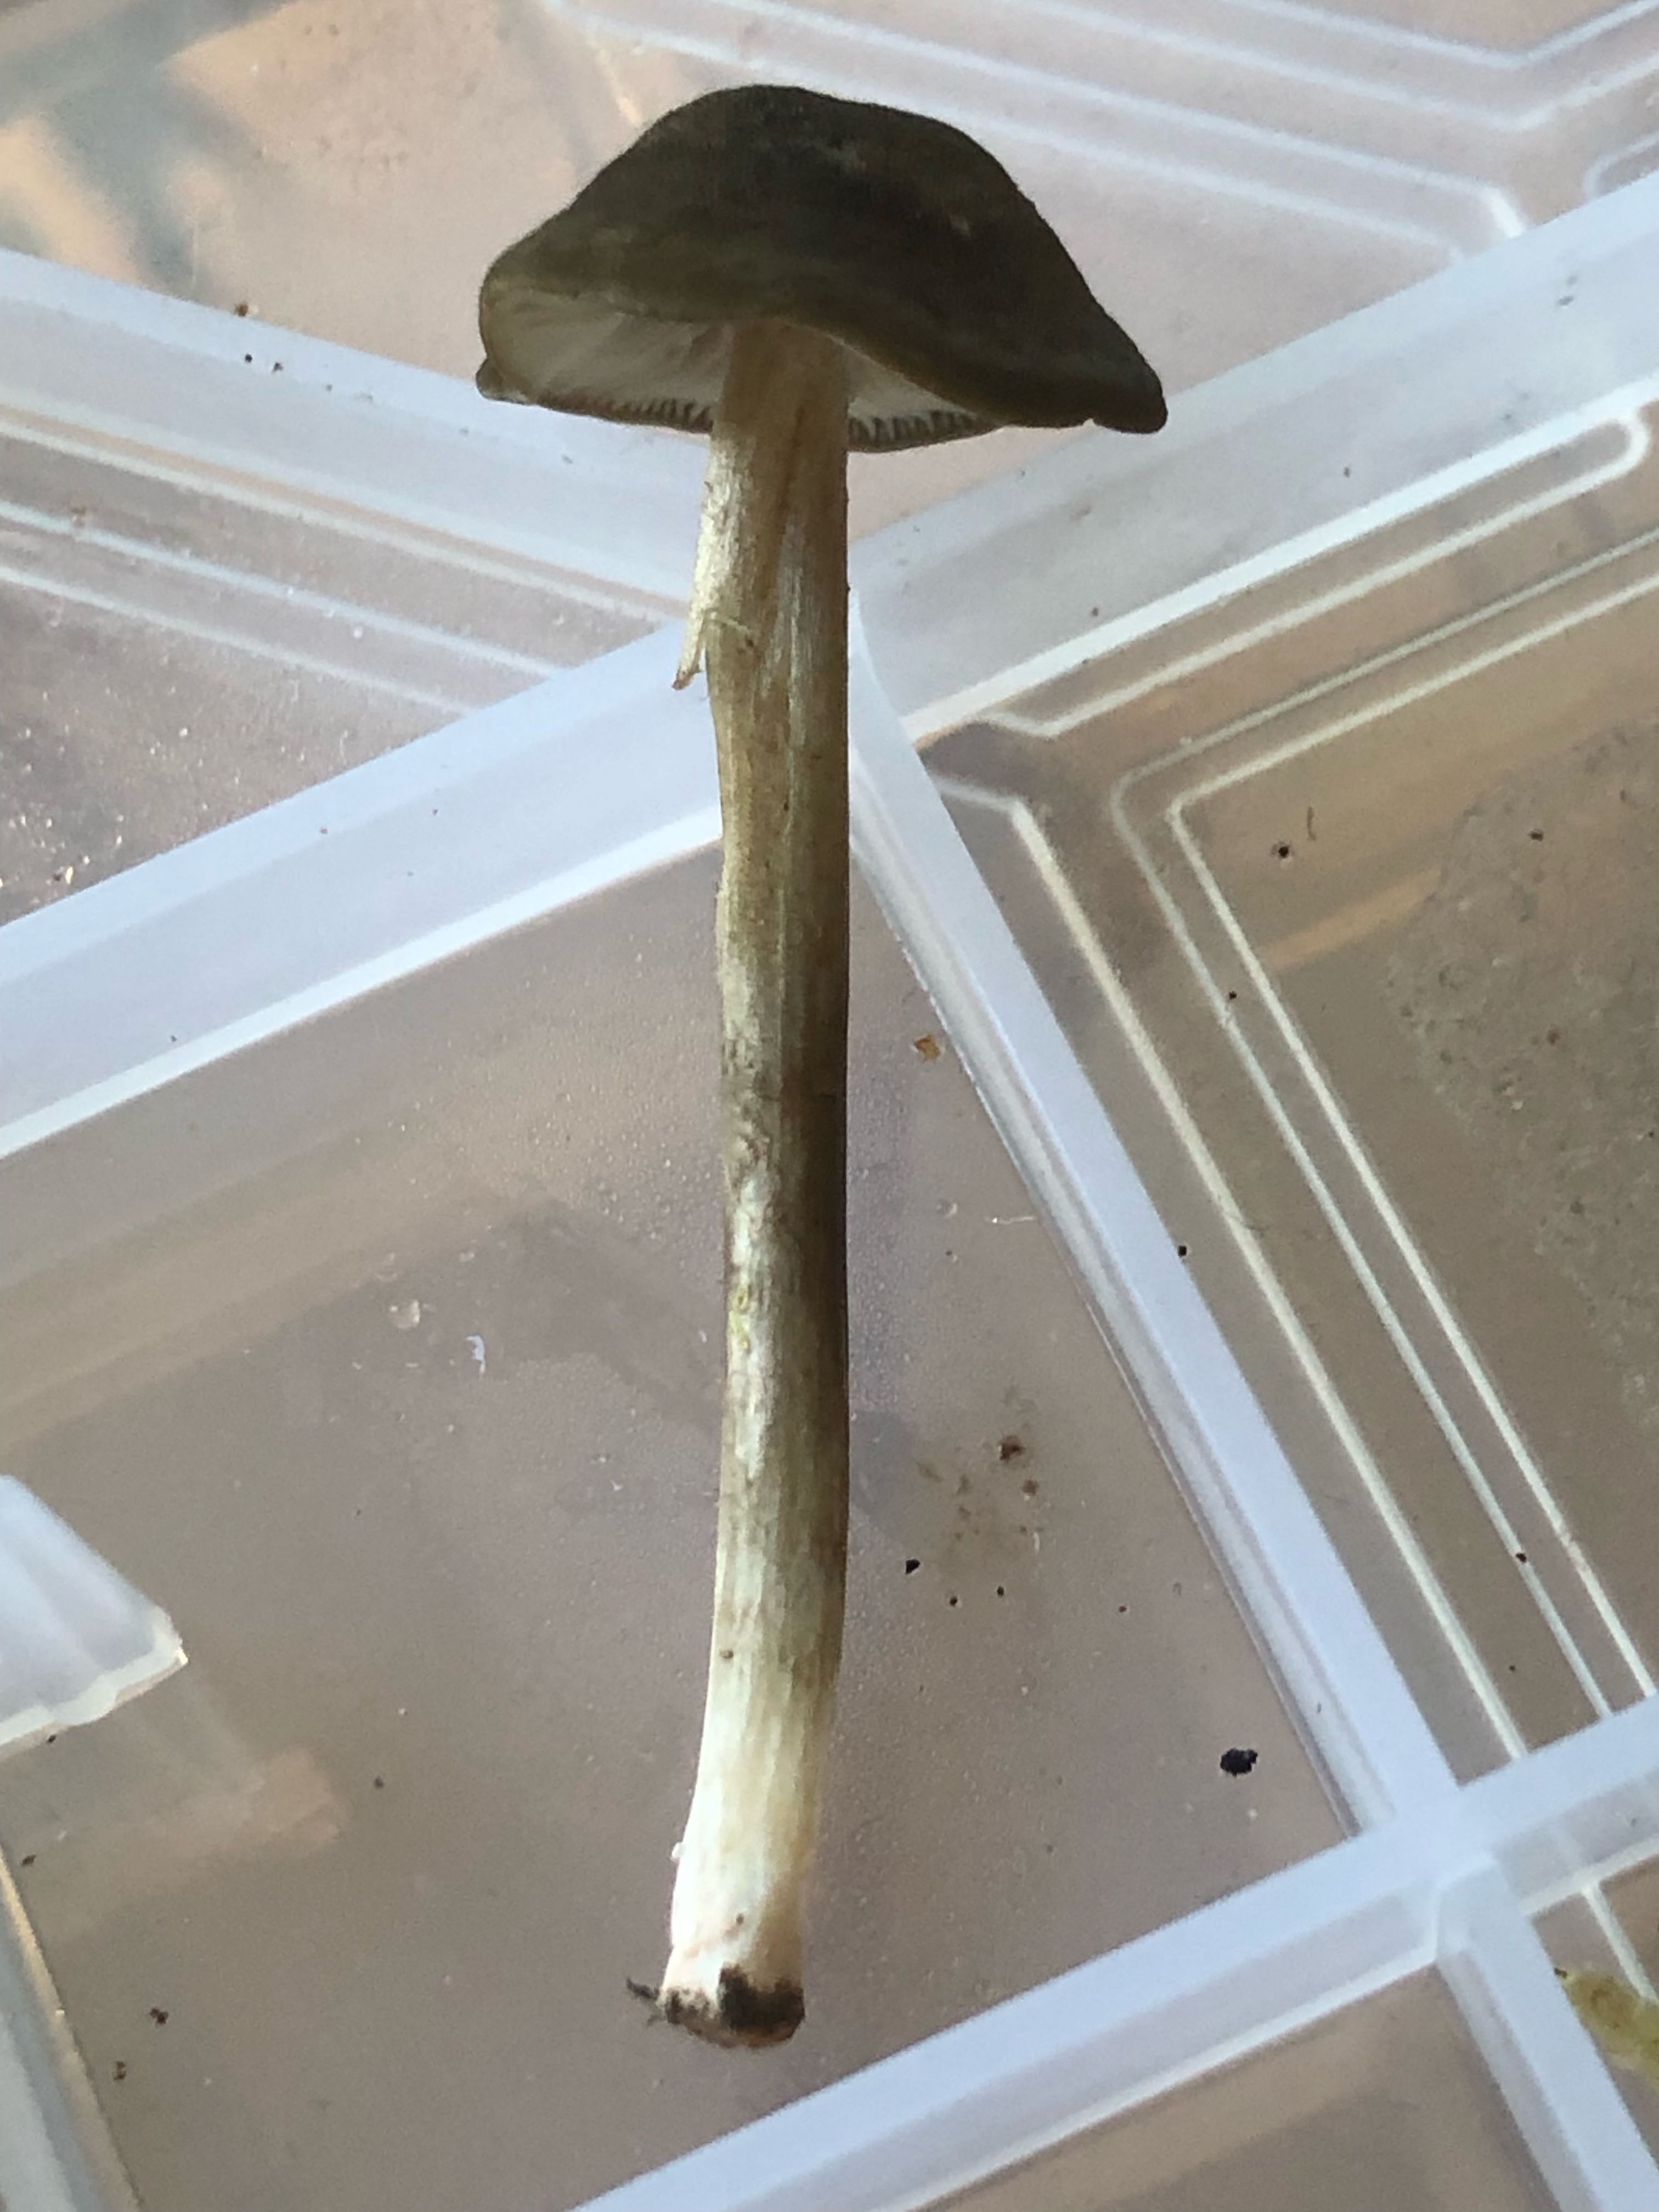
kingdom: Fungi
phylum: Basidiomycota
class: Agaricomycetes
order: Agaricales
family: Entolomataceae
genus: Entoloma
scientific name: Entoloma
